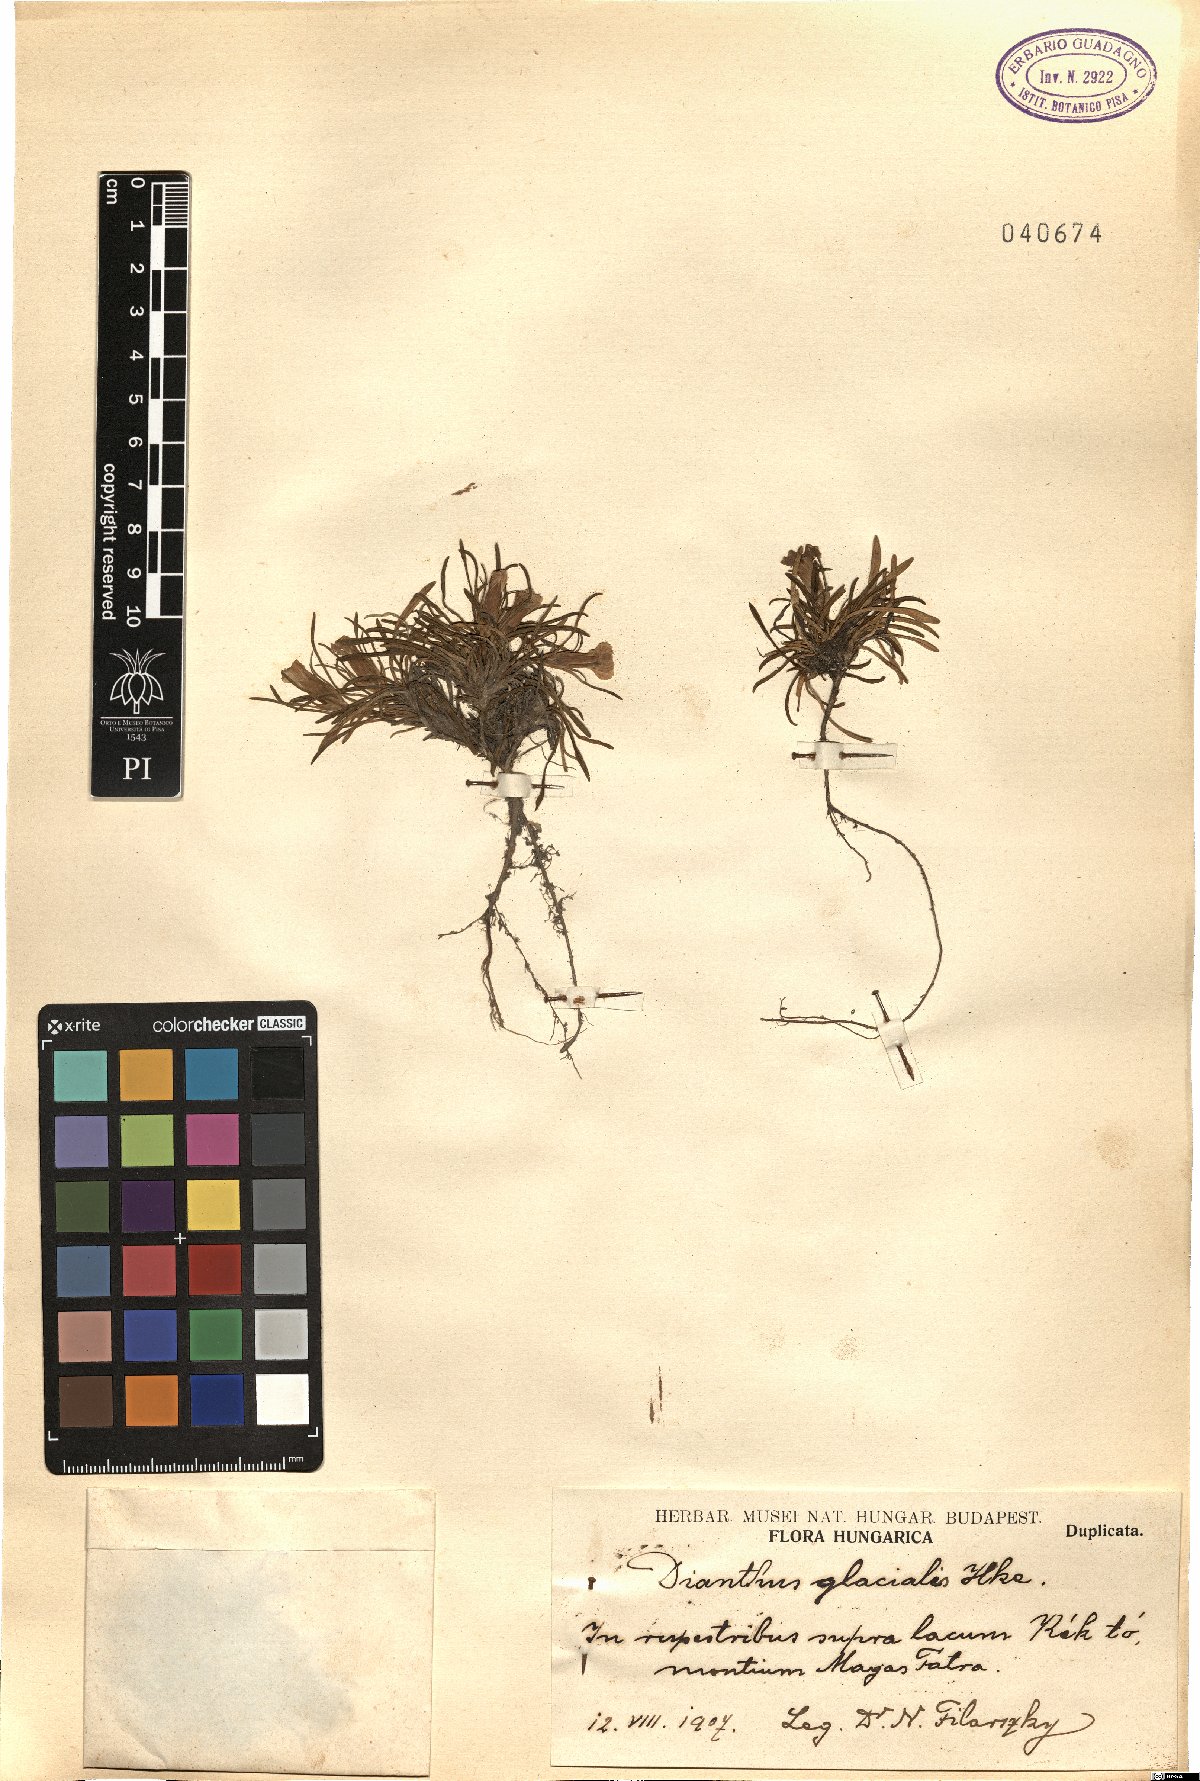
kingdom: Plantae
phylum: Tracheophyta
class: Magnoliopsida
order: Caryophyllales
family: Caryophyllaceae
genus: Dianthus
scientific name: Dianthus glacialis
